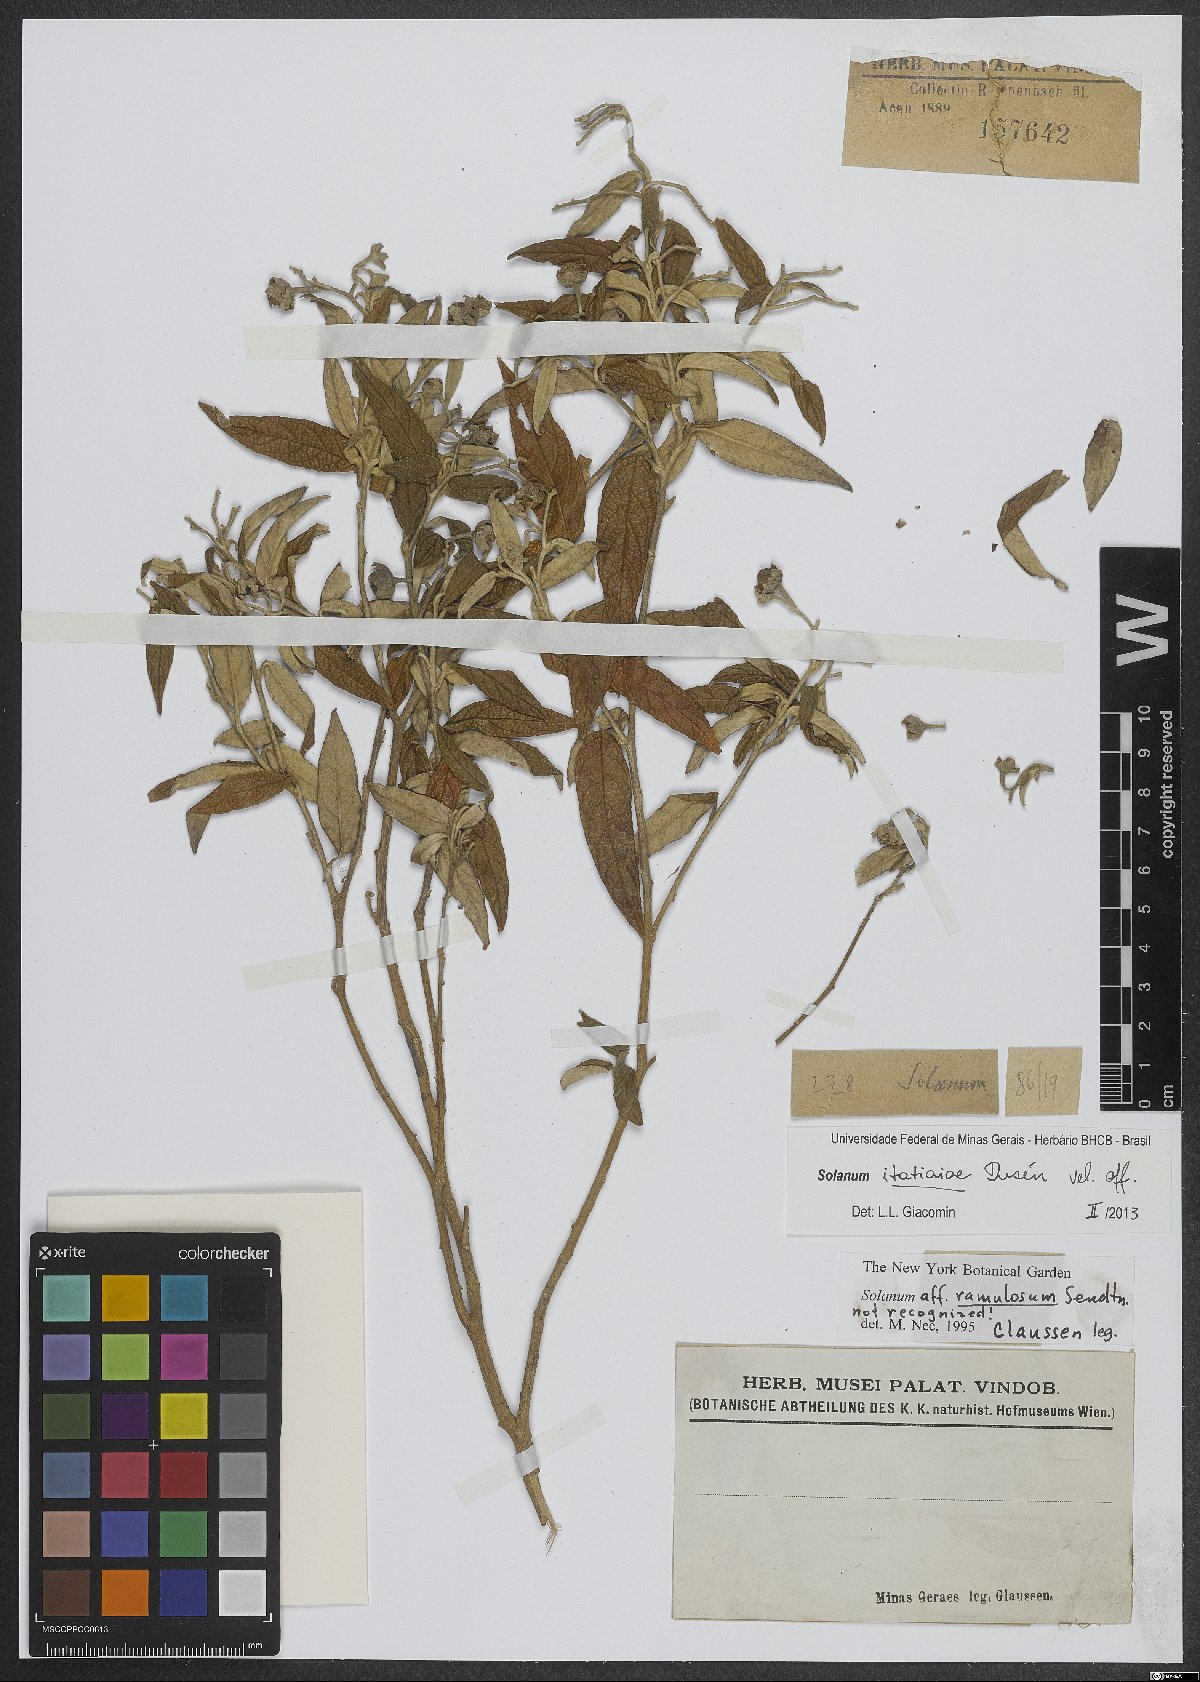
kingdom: Plantae
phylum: Tracheophyta
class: Magnoliopsida
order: Solanales
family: Solanaceae
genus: Solanum
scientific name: Solanum itatiaiae
